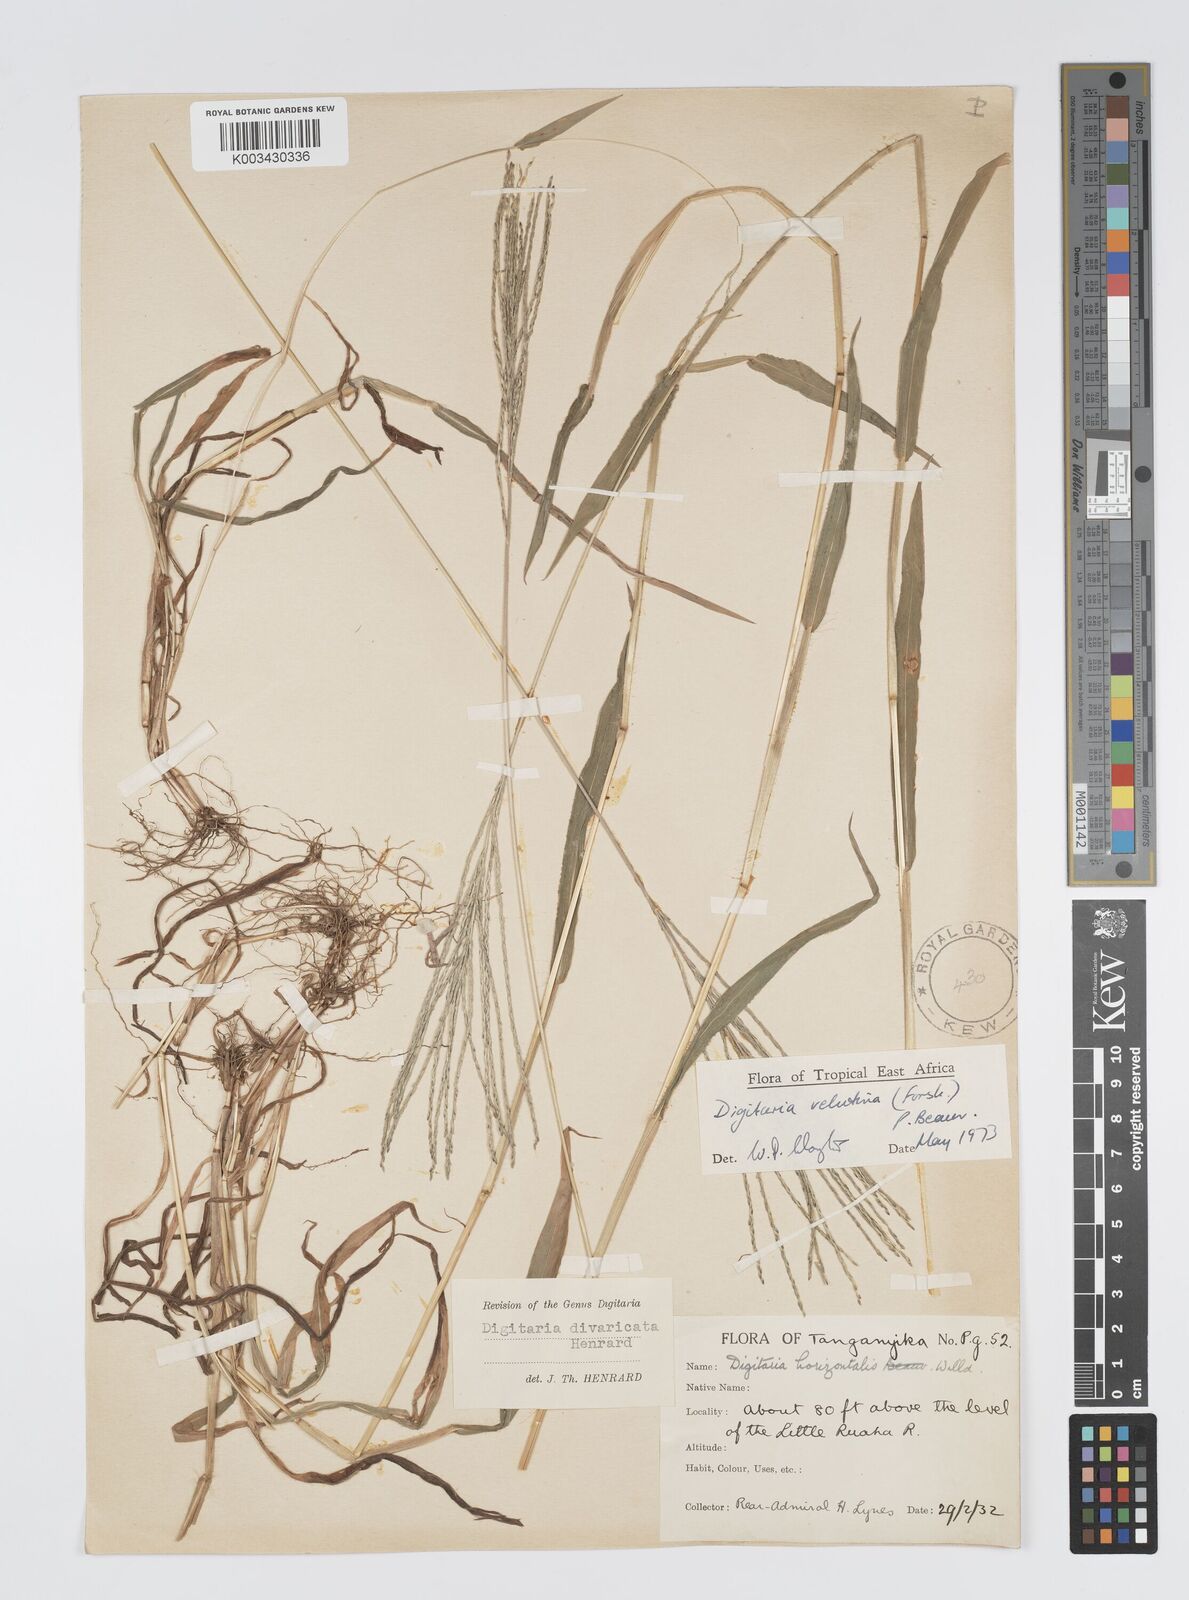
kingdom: Plantae
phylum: Tracheophyta
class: Liliopsida
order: Poales
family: Poaceae
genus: Digitaria
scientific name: Digitaria velutina
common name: Long-plume finger grass
